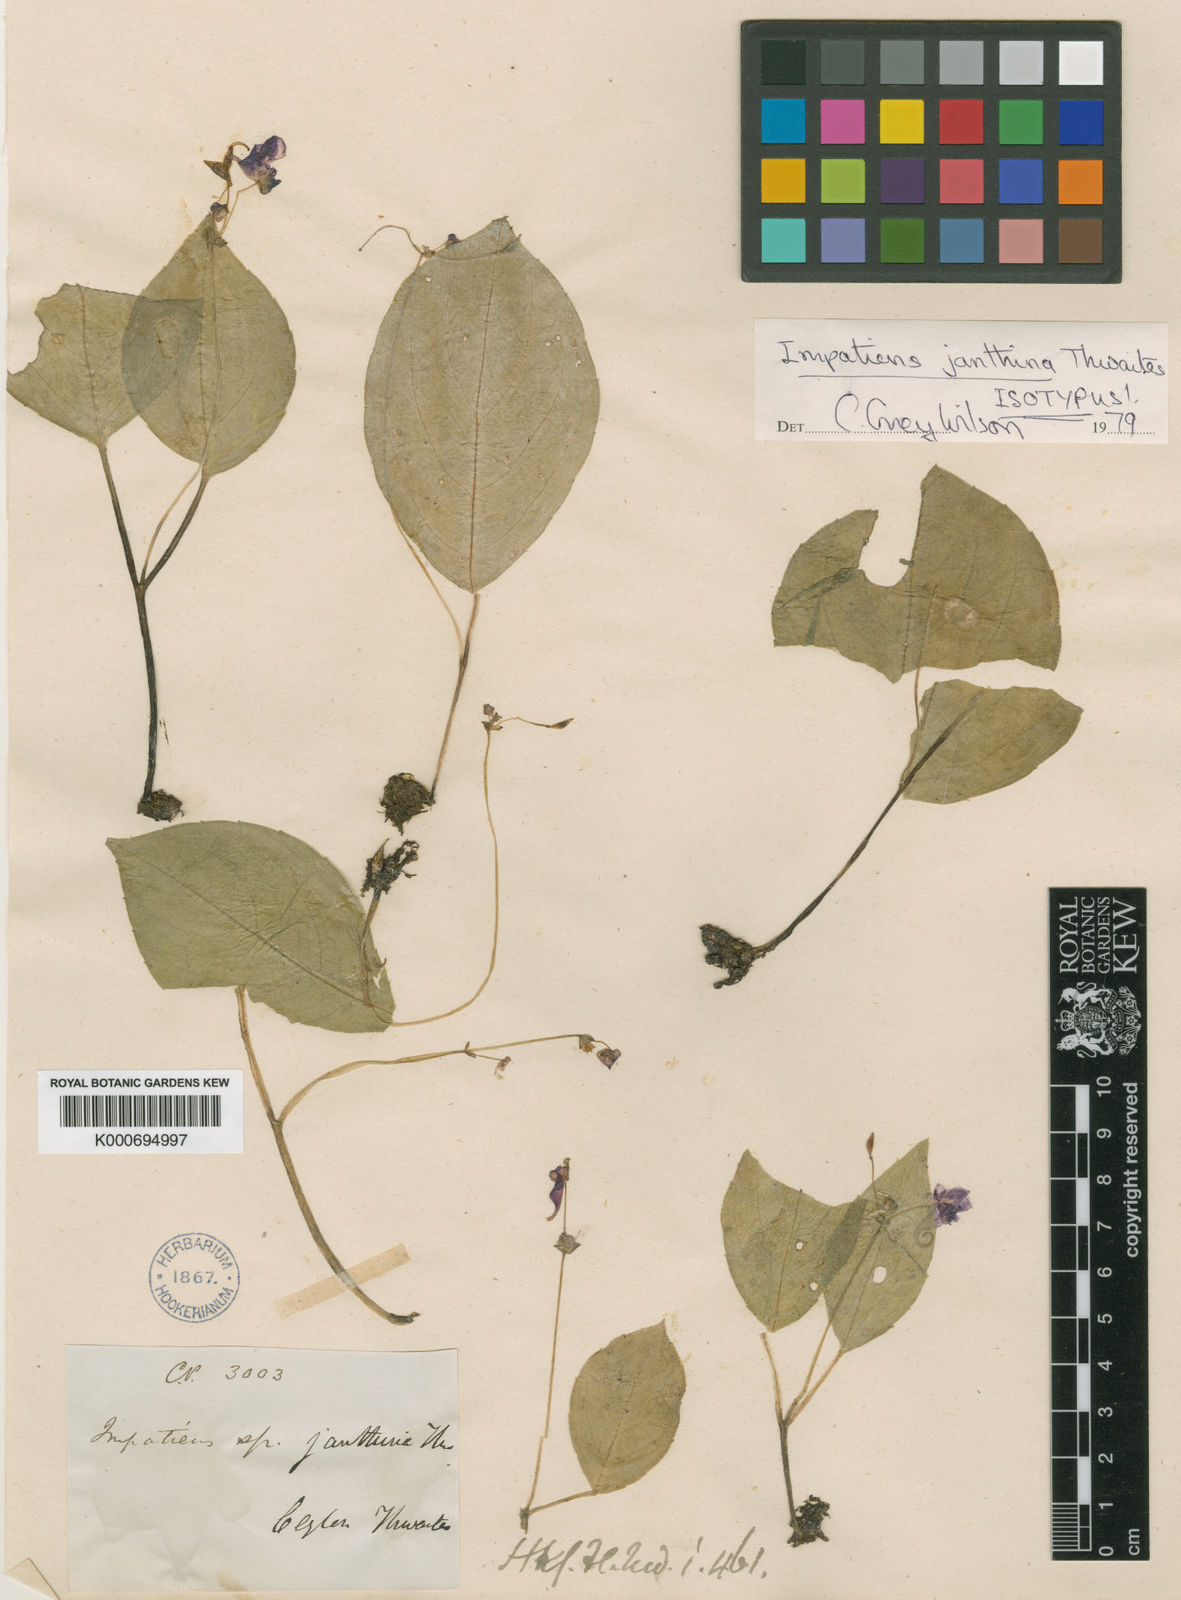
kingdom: Plantae
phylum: Tracheophyta
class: Magnoliopsida
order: Ericales
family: Balsaminaceae
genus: Impatiens
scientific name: Impatiens janthina
